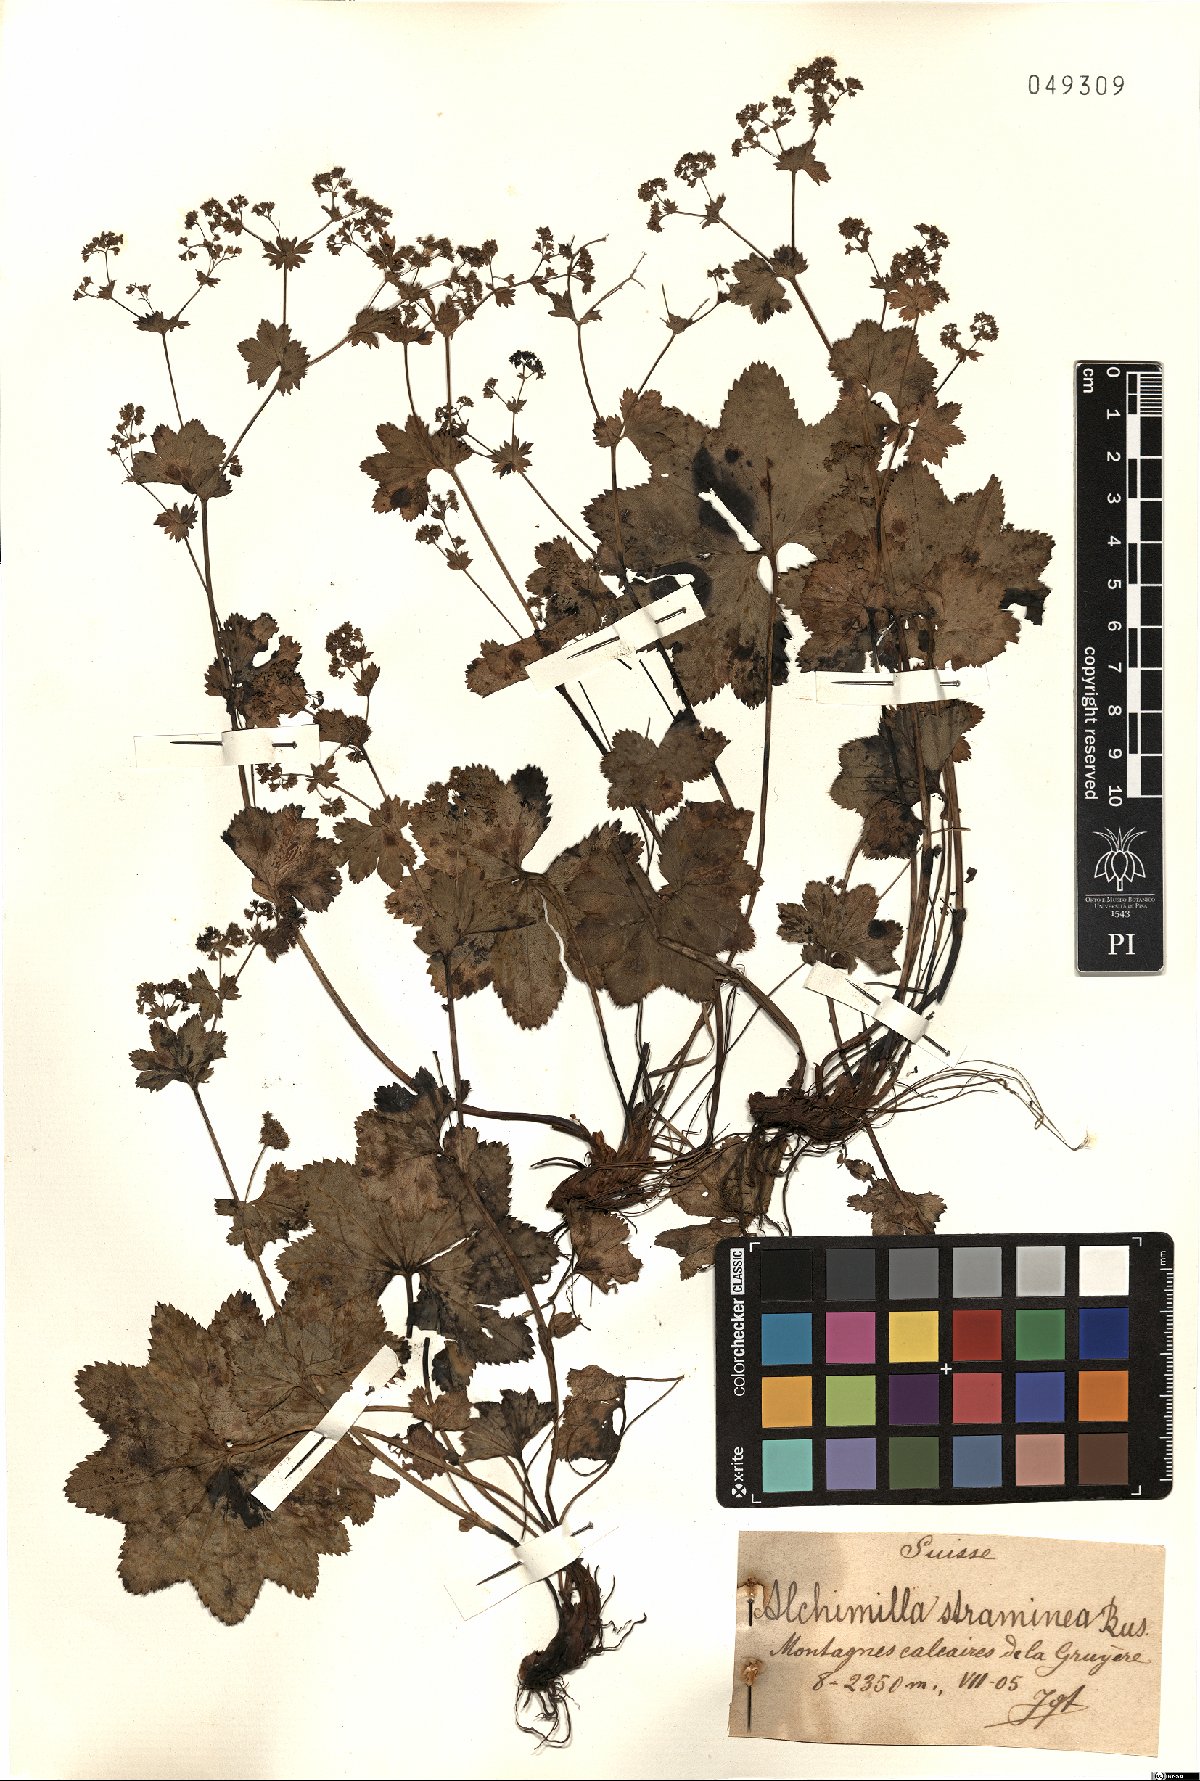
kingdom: Plantae
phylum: Tracheophyta
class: Magnoliopsida
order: Rosales
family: Rosaceae
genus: Alchemilla
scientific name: Alchemilla straminea
